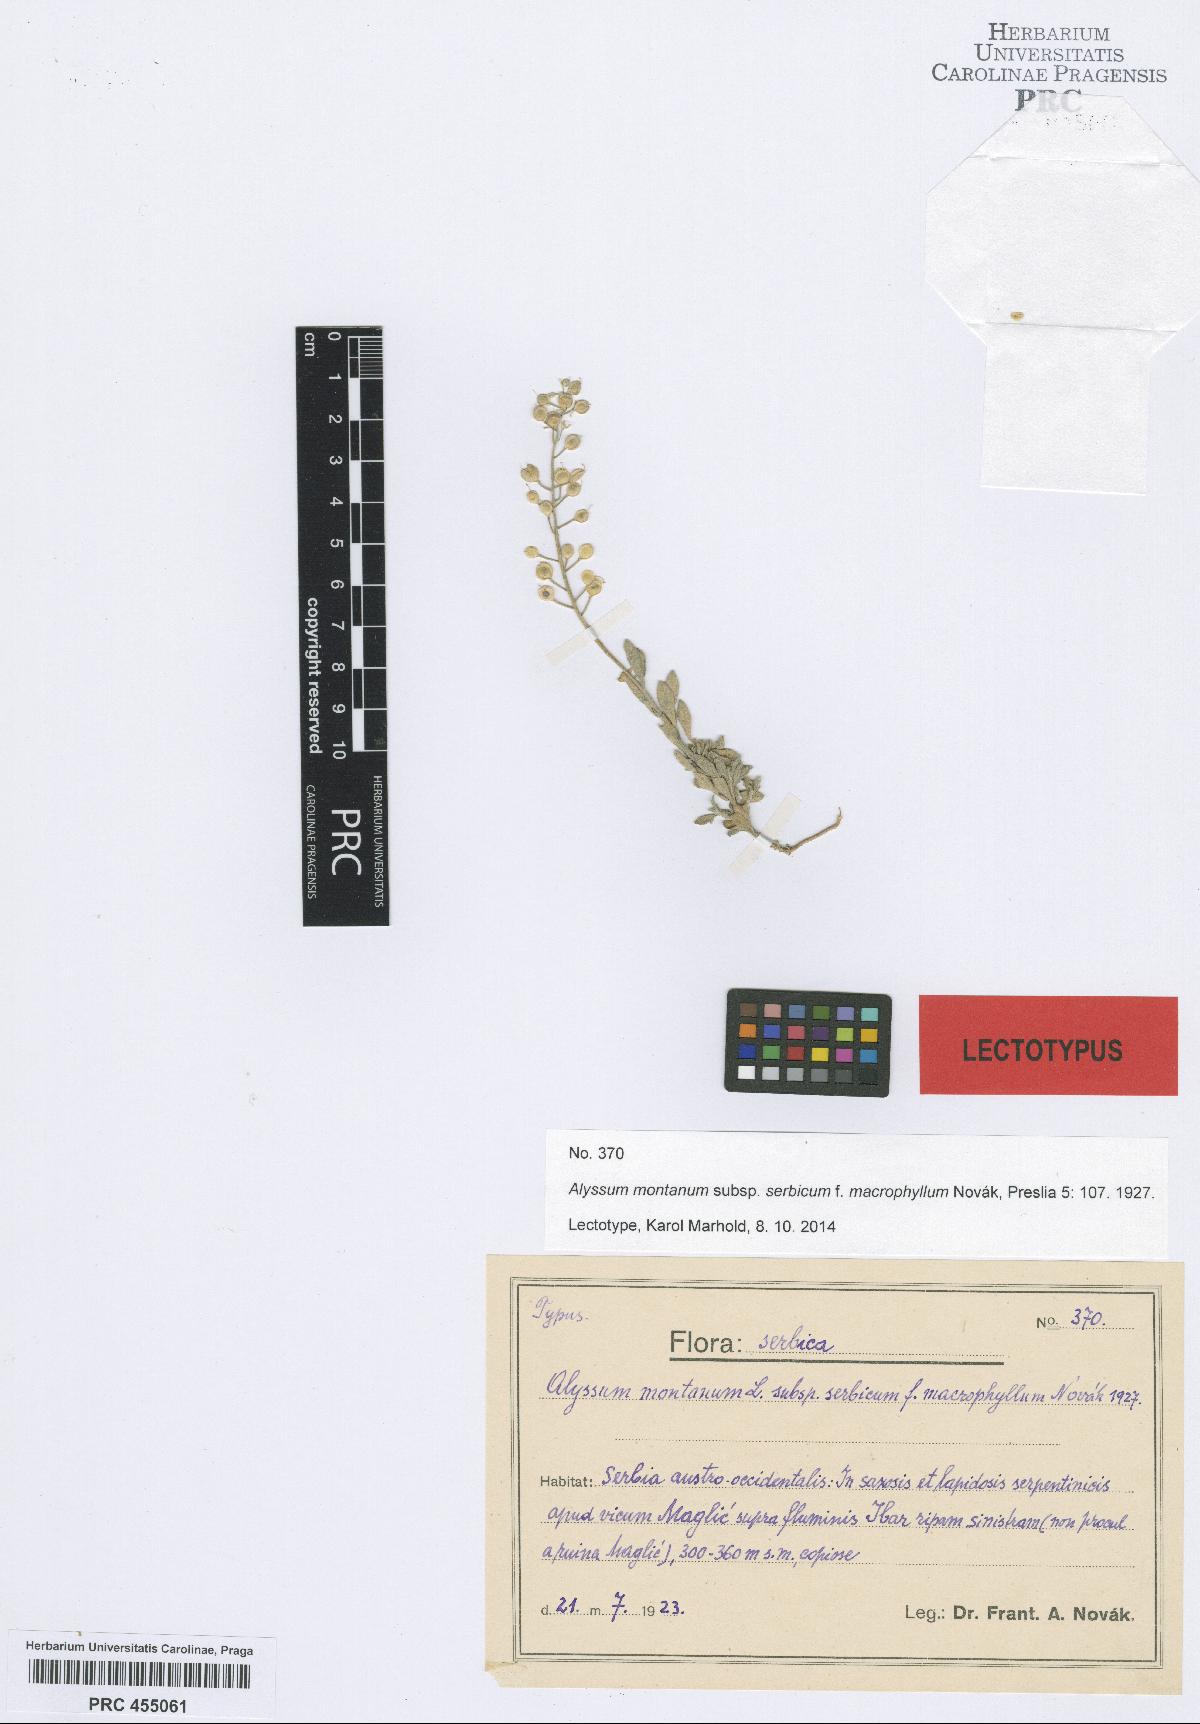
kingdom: Plantae
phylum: Tracheophyta
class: Magnoliopsida
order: Brassicales
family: Brassicaceae
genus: Alyssum
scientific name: Alyssum montanum
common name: Mountain alison
